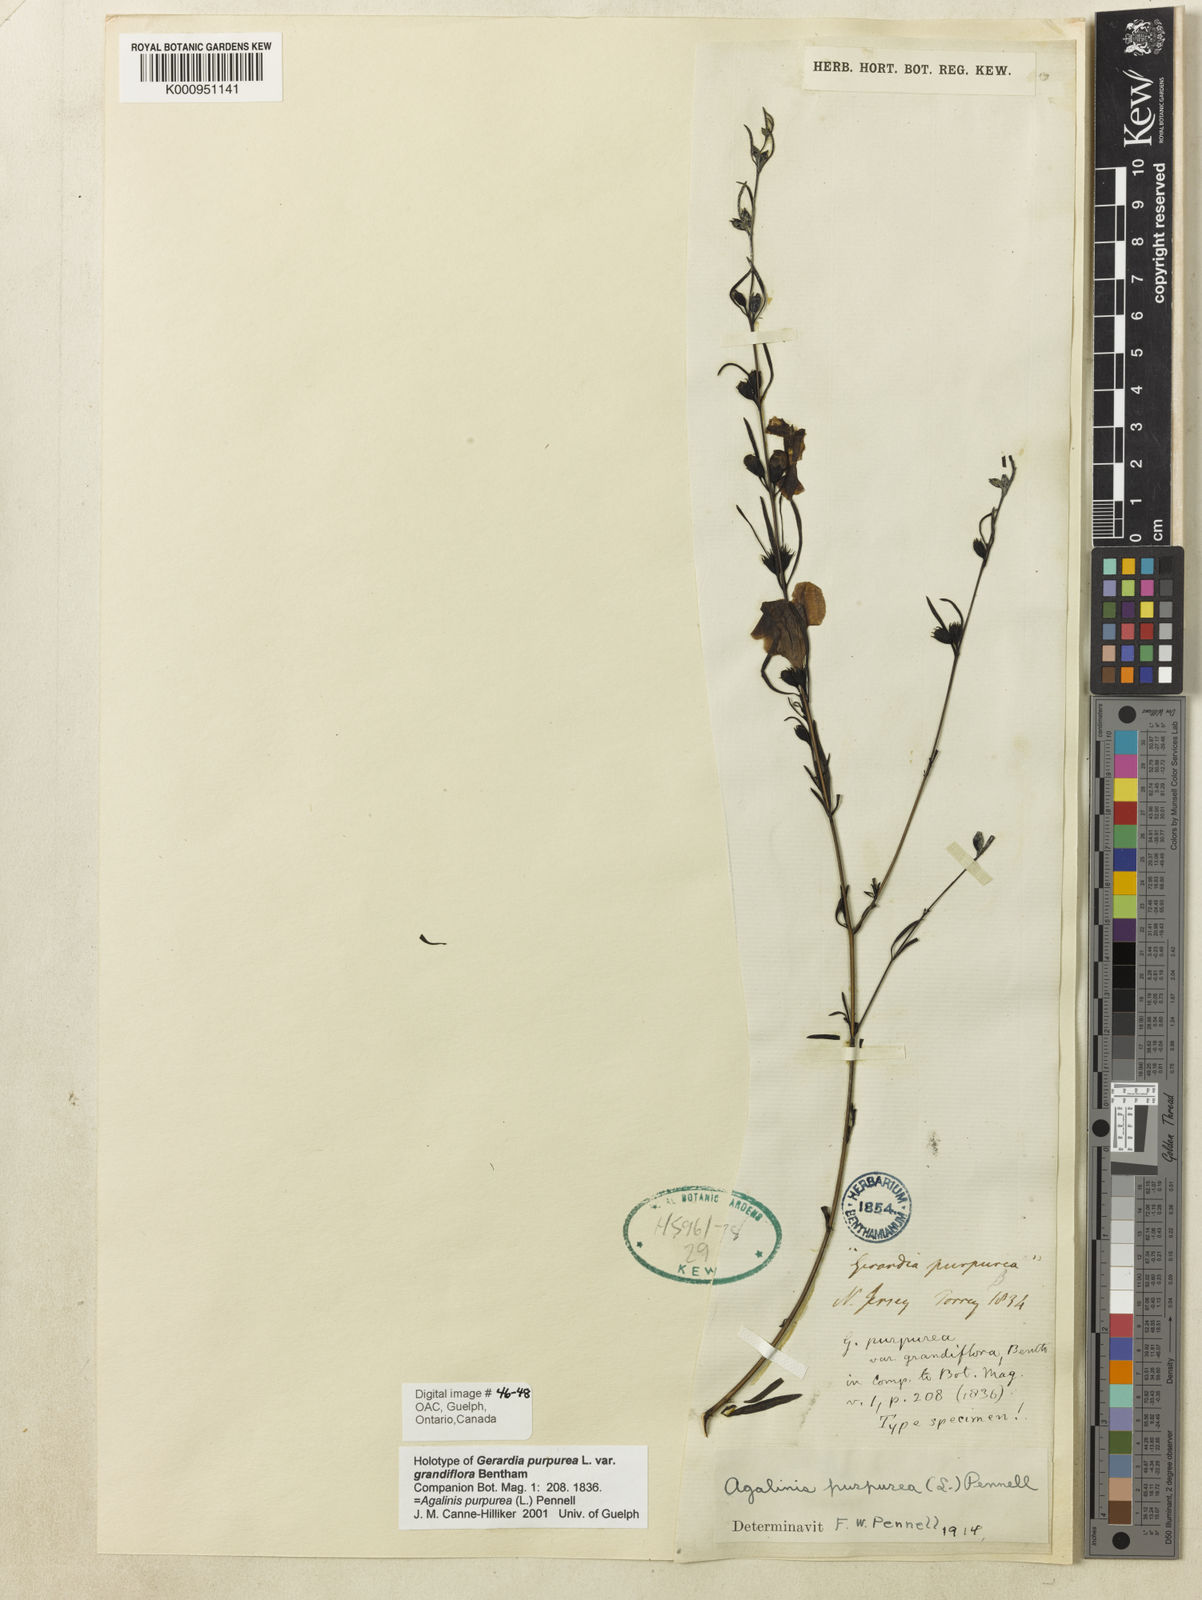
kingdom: Plantae
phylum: Tracheophyta
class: Magnoliopsida
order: Lamiales
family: Orobanchaceae
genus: Agalinis
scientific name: Agalinis purpurea
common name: Purple false foxglove
